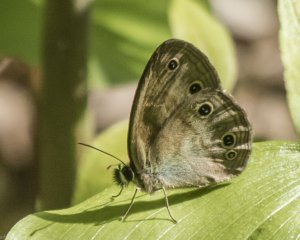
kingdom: Animalia
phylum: Arthropoda
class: Insecta
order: Lepidoptera
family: Nymphalidae
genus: Euptychia
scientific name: Euptychia cymela
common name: Little Wood Satyr
